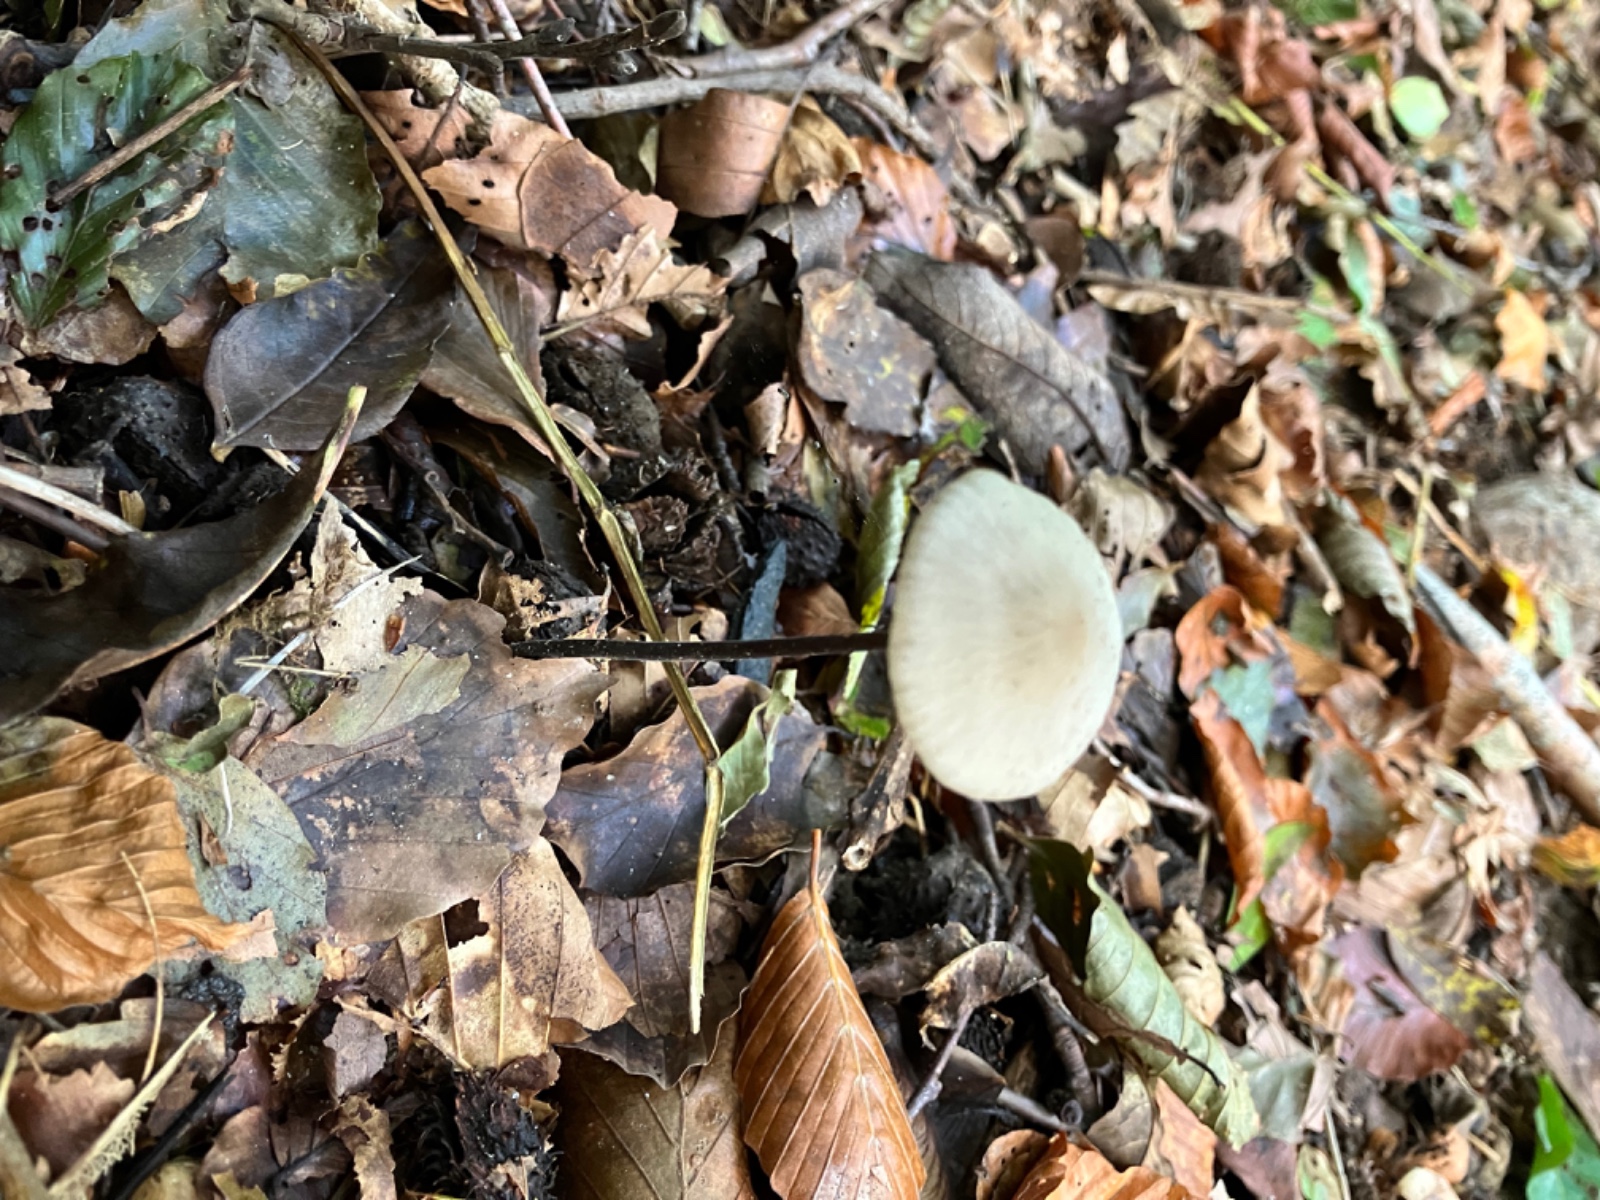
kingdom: Fungi
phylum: Basidiomycota
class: Agaricomycetes
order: Agaricales
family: Omphalotaceae
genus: Mycetinis
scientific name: Mycetinis alliaceus
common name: stor løghat
